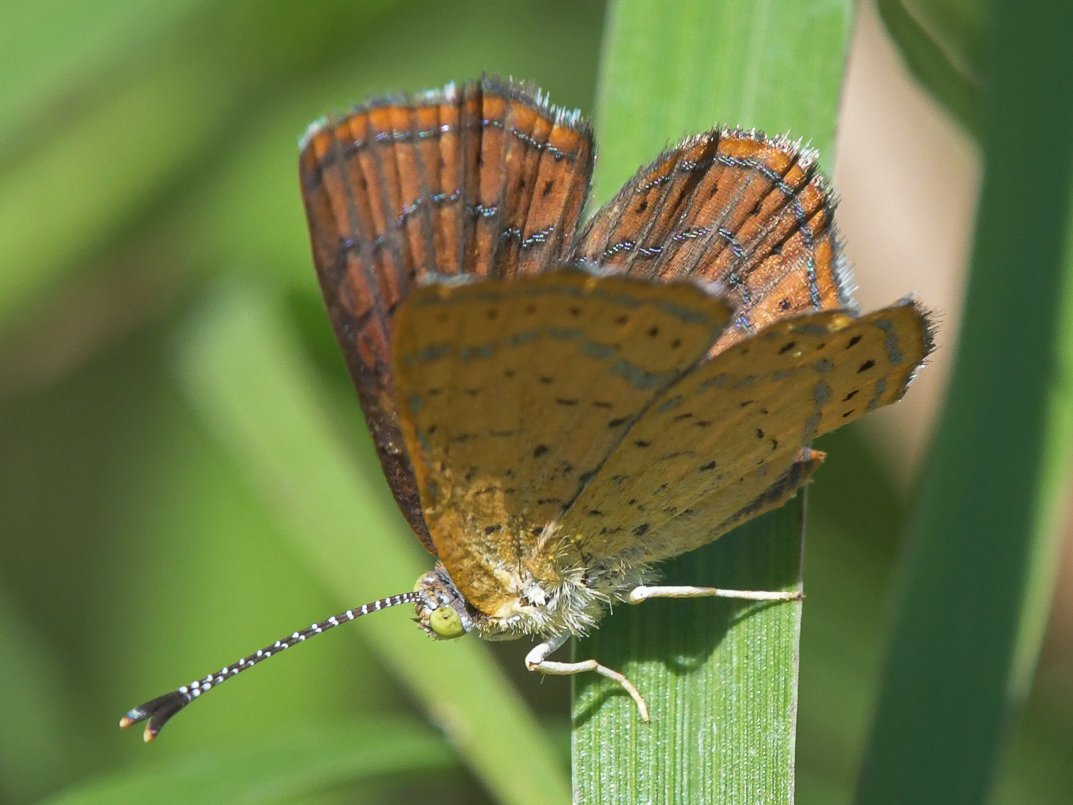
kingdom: Animalia
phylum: Arthropoda
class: Insecta
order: Lepidoptera
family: Lycaenidae
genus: Emesis
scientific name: Emesis wrighti
